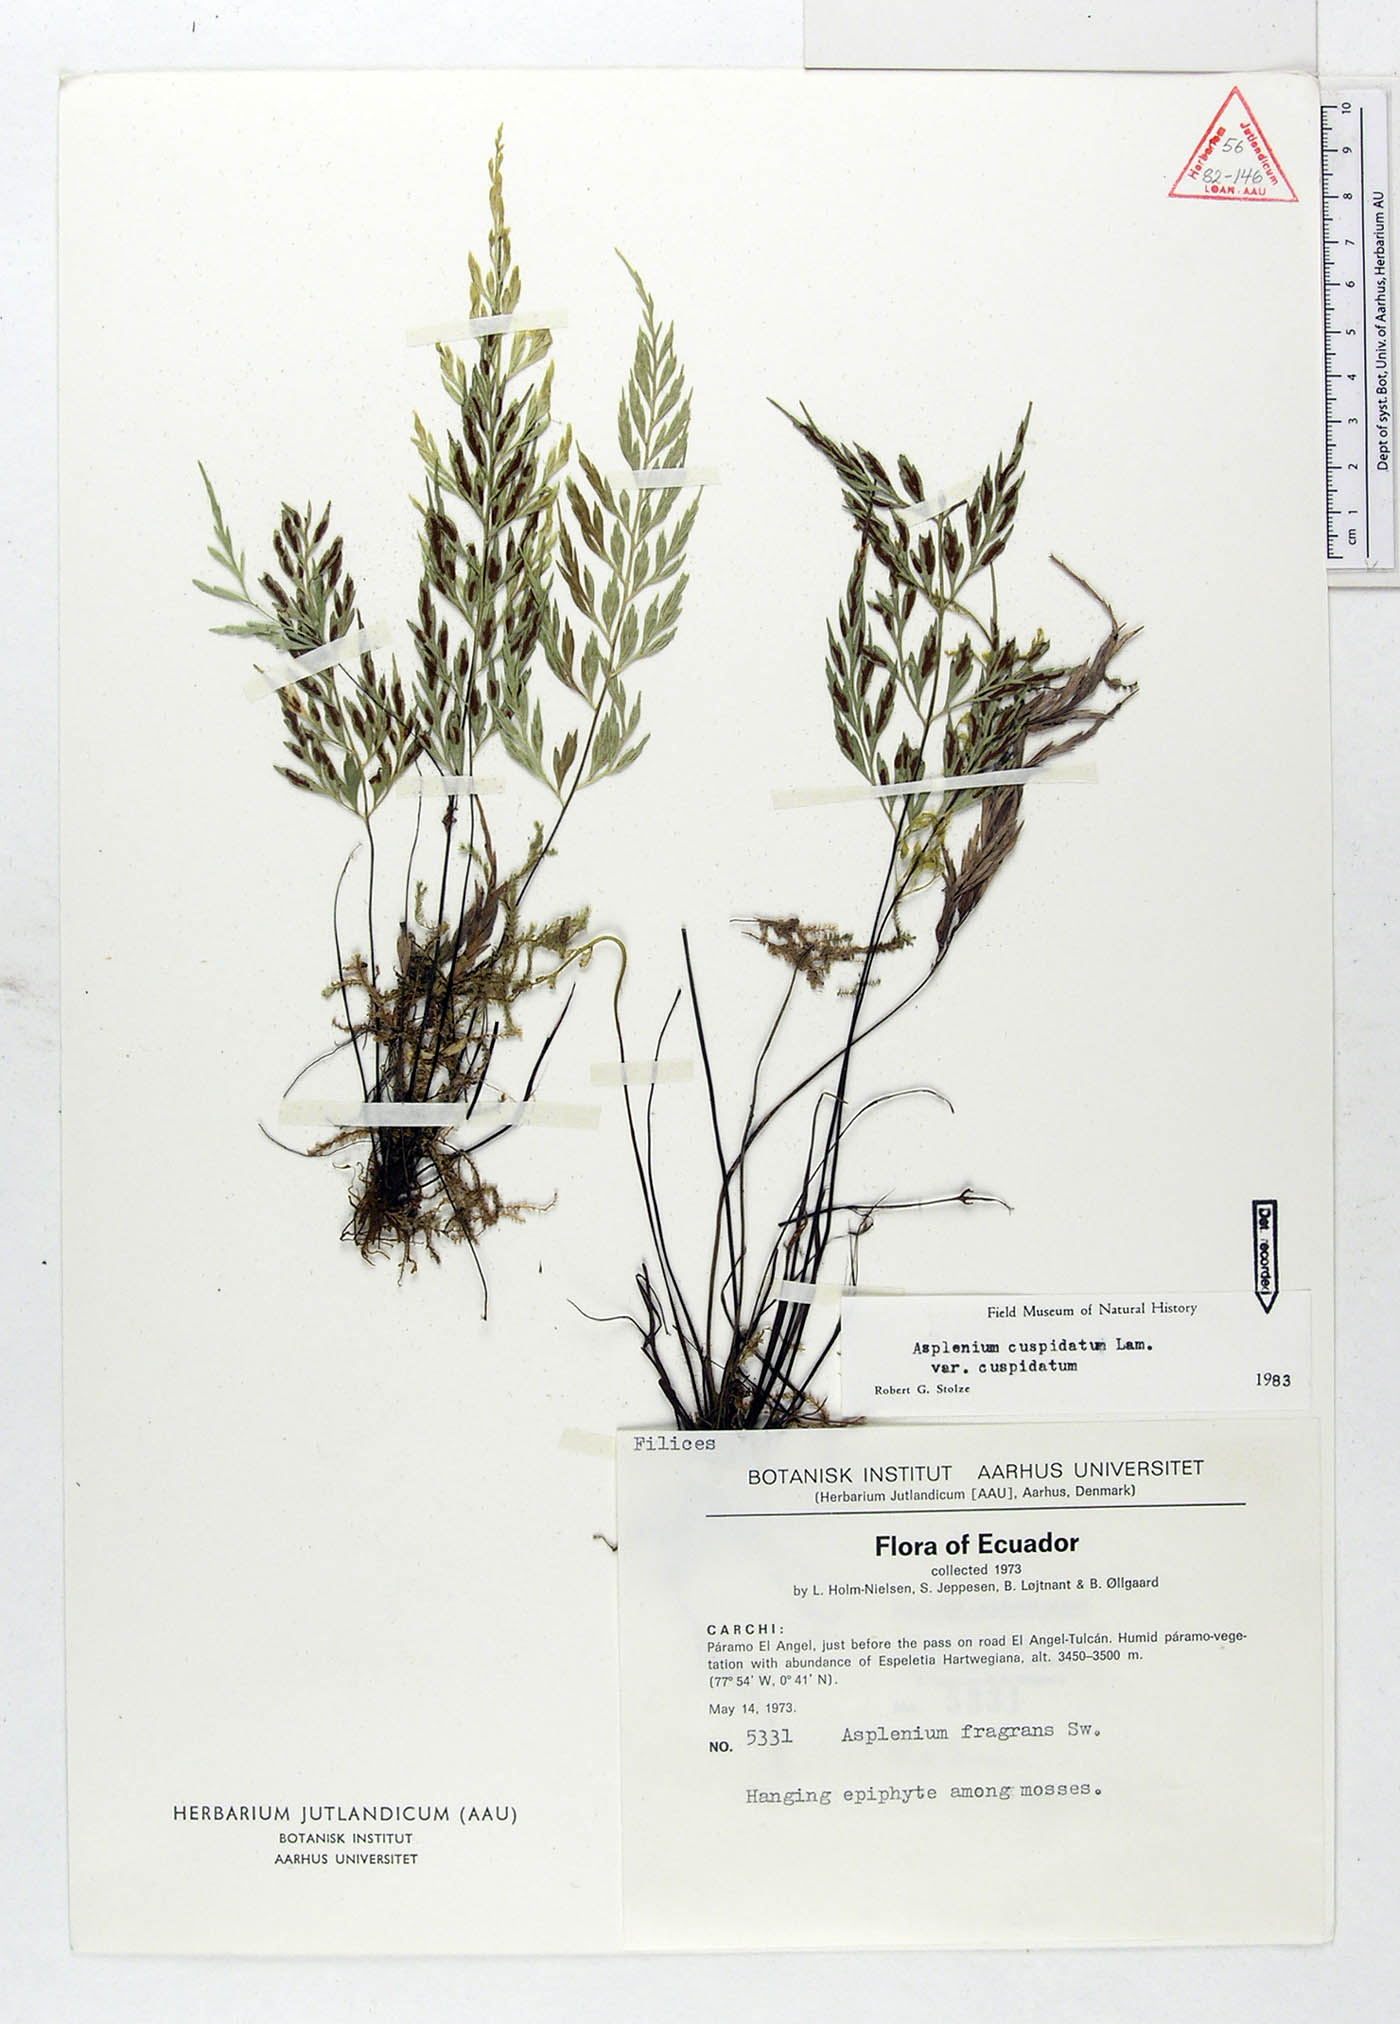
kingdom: Plantae
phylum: Tracheophyta
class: Polypodiopsida
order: Polypodiales
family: Aspleniaceae
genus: Asplenium
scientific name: Asplenium cuspidatum
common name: Eared spleenwort
